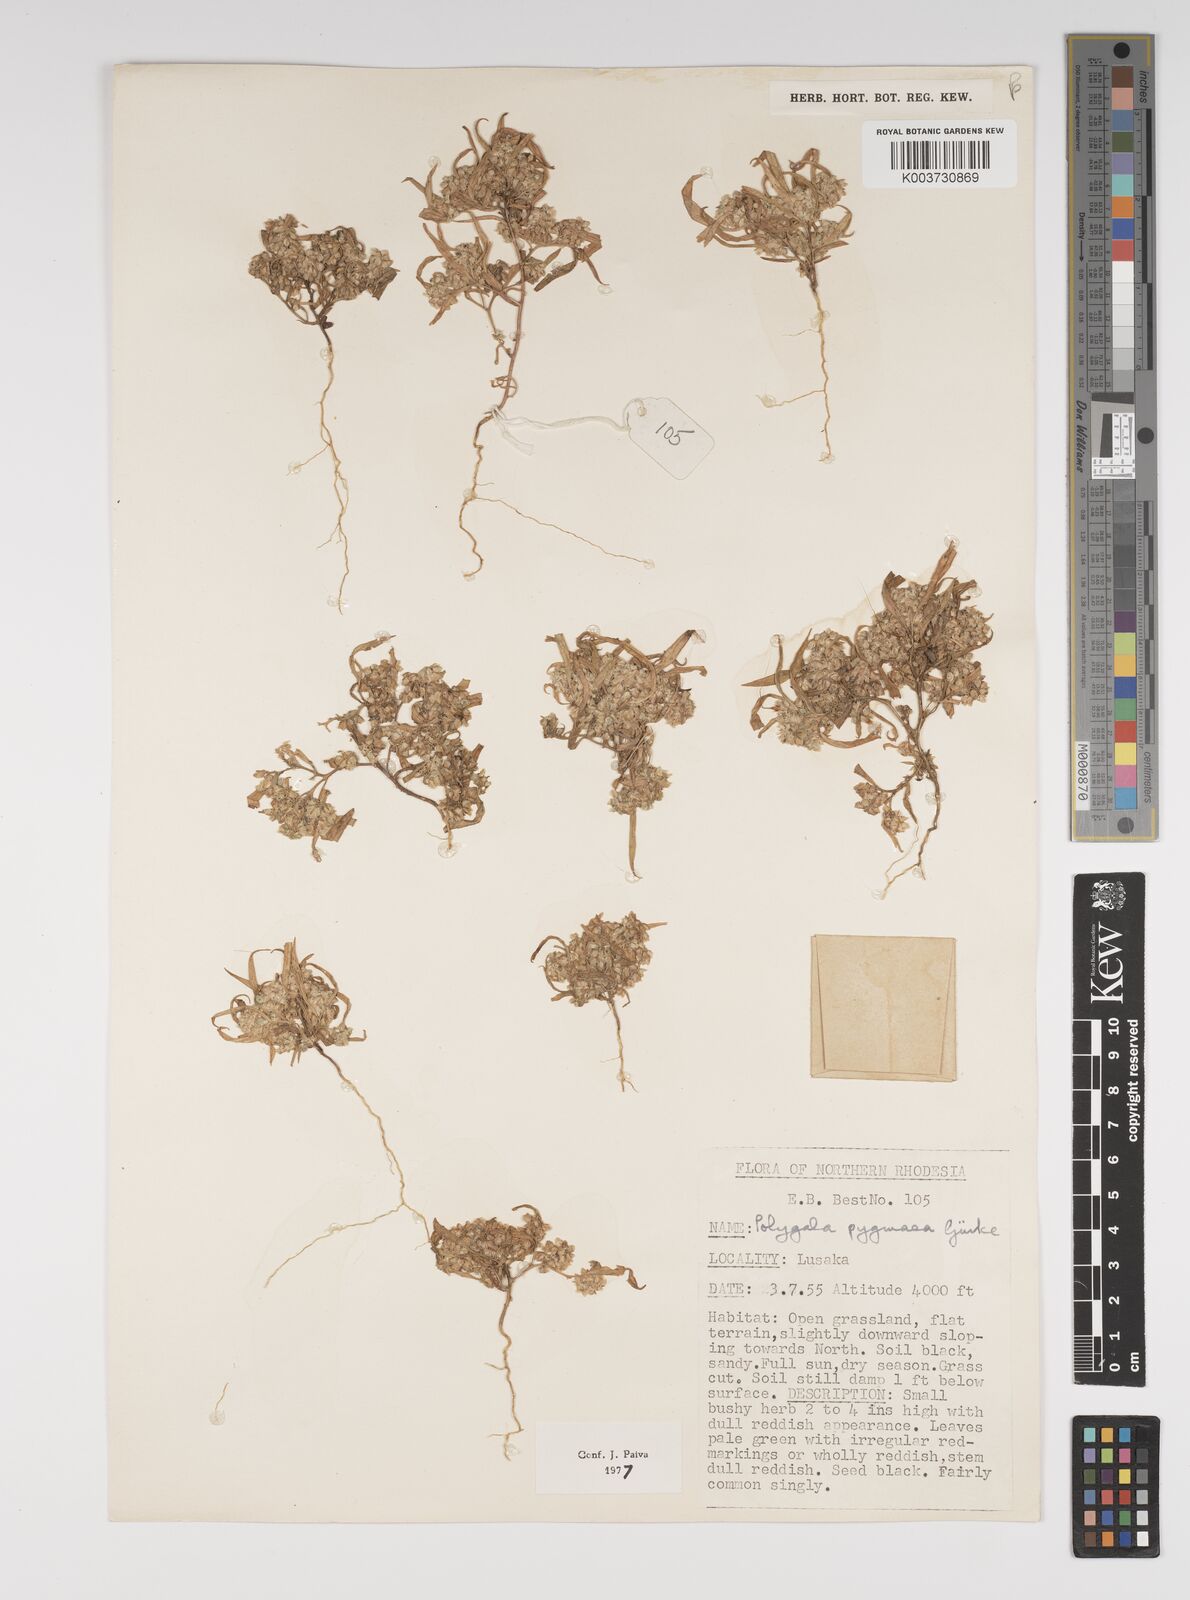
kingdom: Plantae
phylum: Tracheophyta
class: Magnoliopsida
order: Fabales
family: Polygalaceae
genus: Polygala
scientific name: Polygala welwitschii
